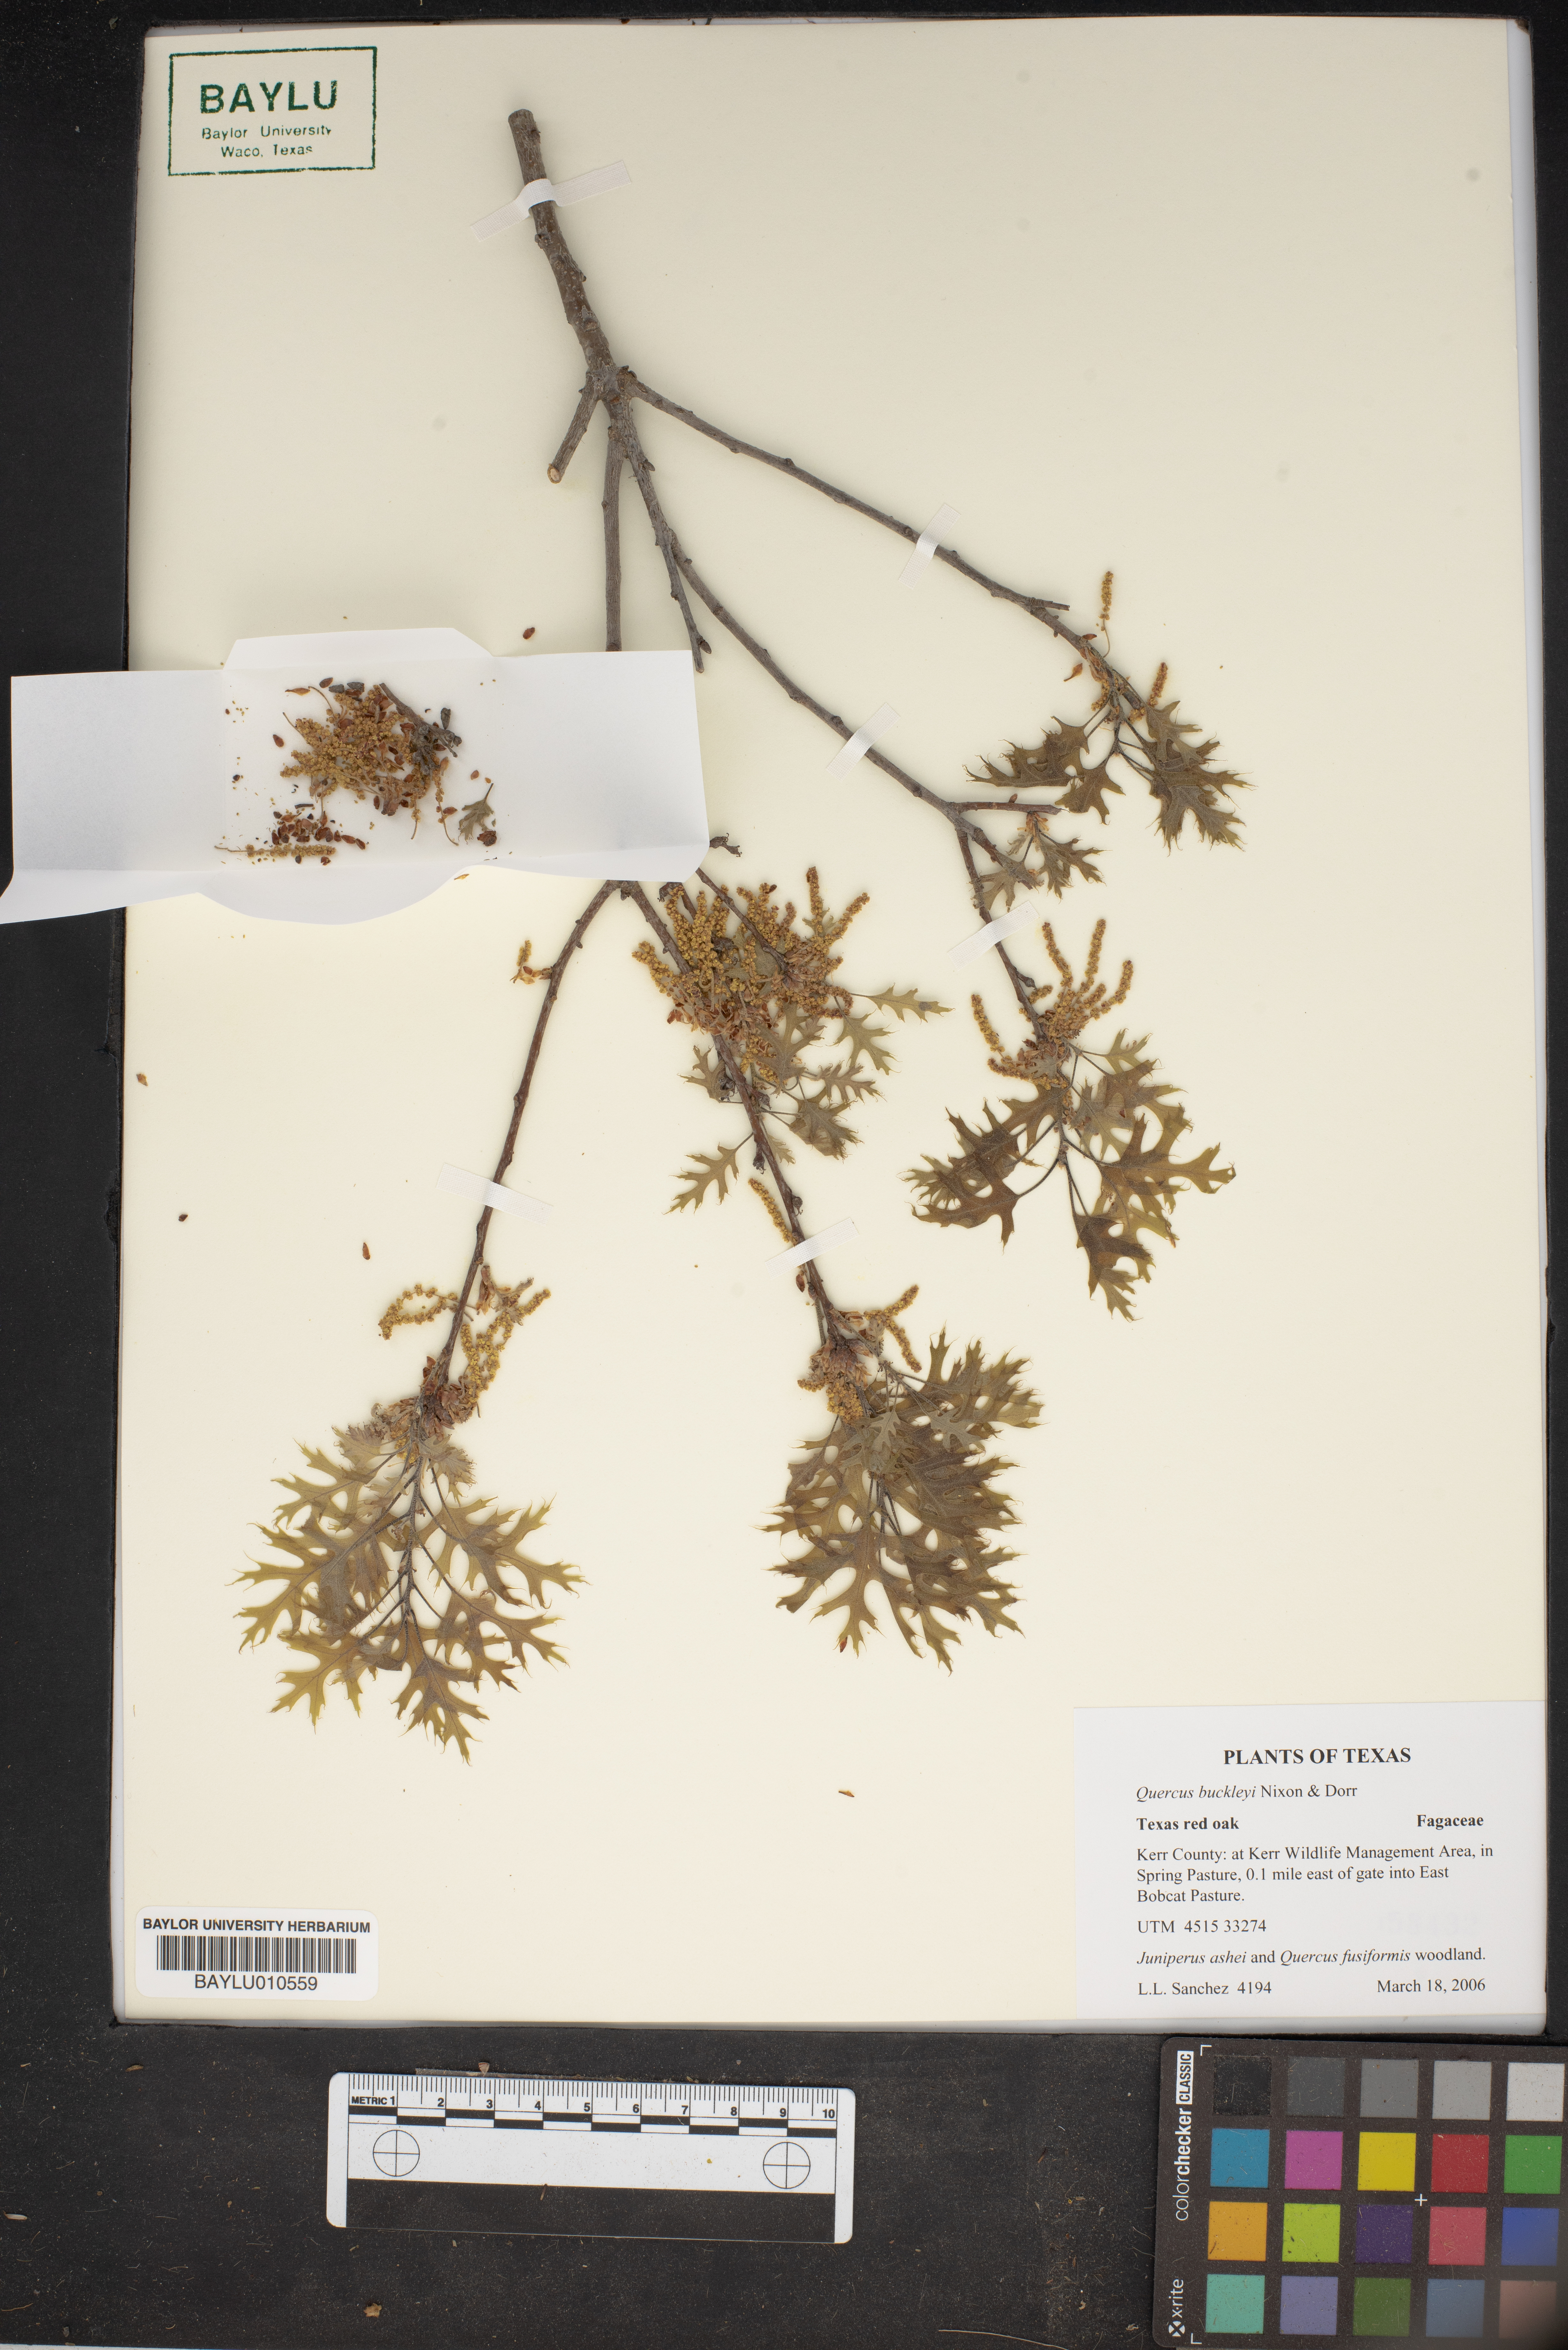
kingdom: Plantae
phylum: Tracheophyta
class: Magnoliopsida
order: Fagales
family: Fagaceae
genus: Quercus
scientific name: Quercus buckleyi
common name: Buckley oak
